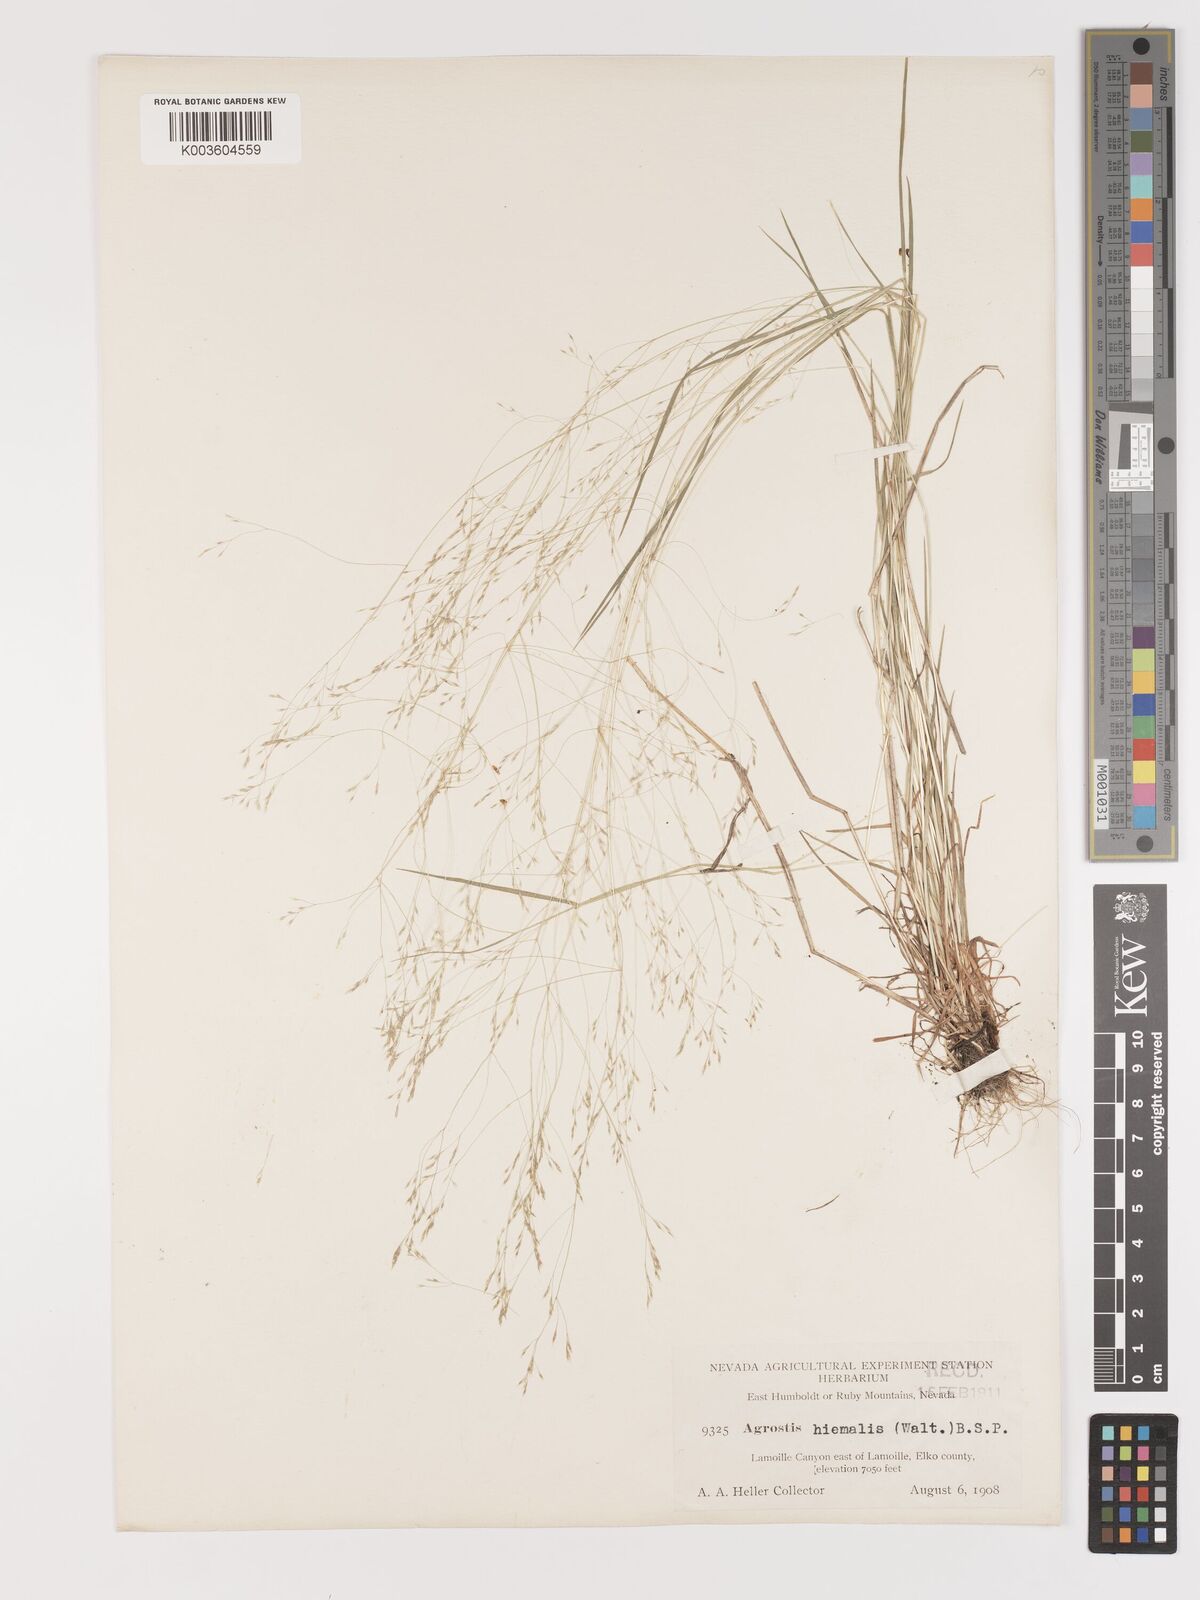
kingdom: Plantae
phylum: Tracheophyta
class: Liliopsida
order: Poales
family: Poaceae
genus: Agrostis
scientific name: Agrostis hyemalis
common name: Small bent
